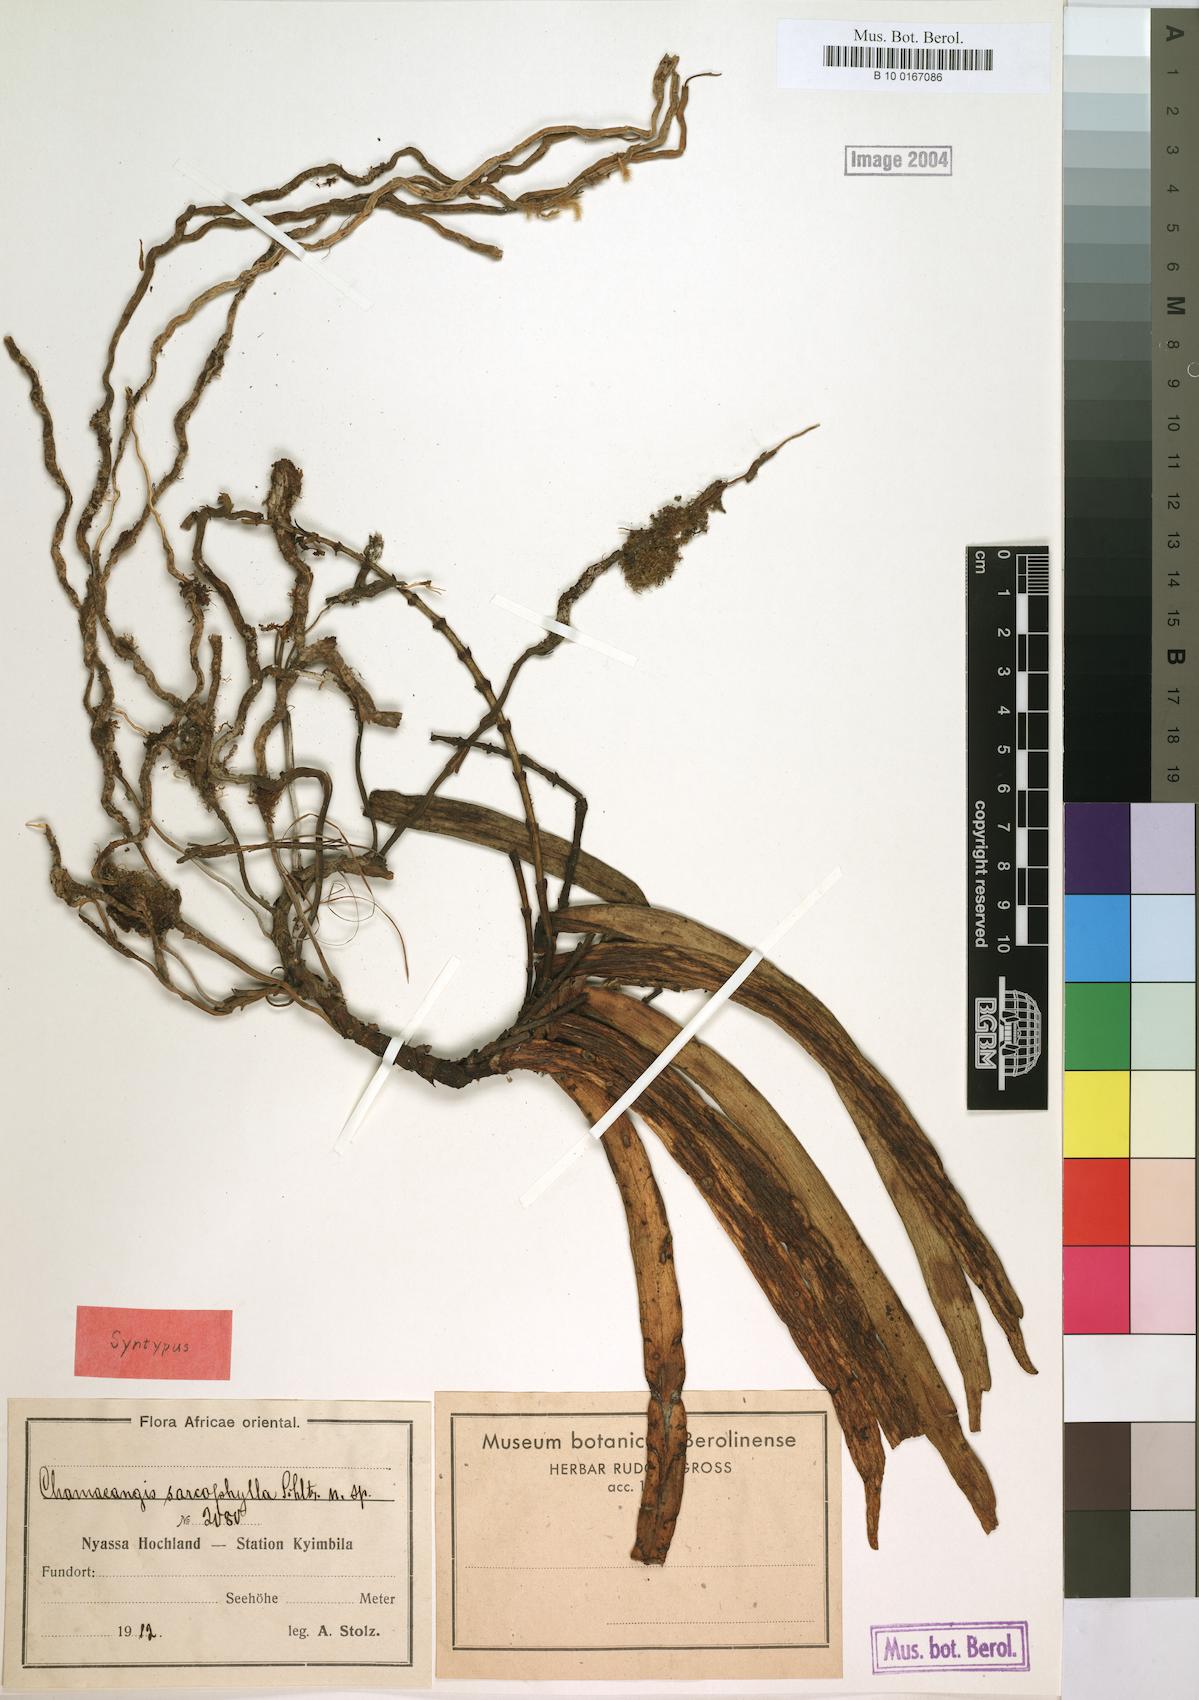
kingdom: Plantae
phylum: Tracheophyta
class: Liliopsida
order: Asparagales
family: Orchidaceae
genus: Diaphananthe
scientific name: Diaphananthe sarcophylla
